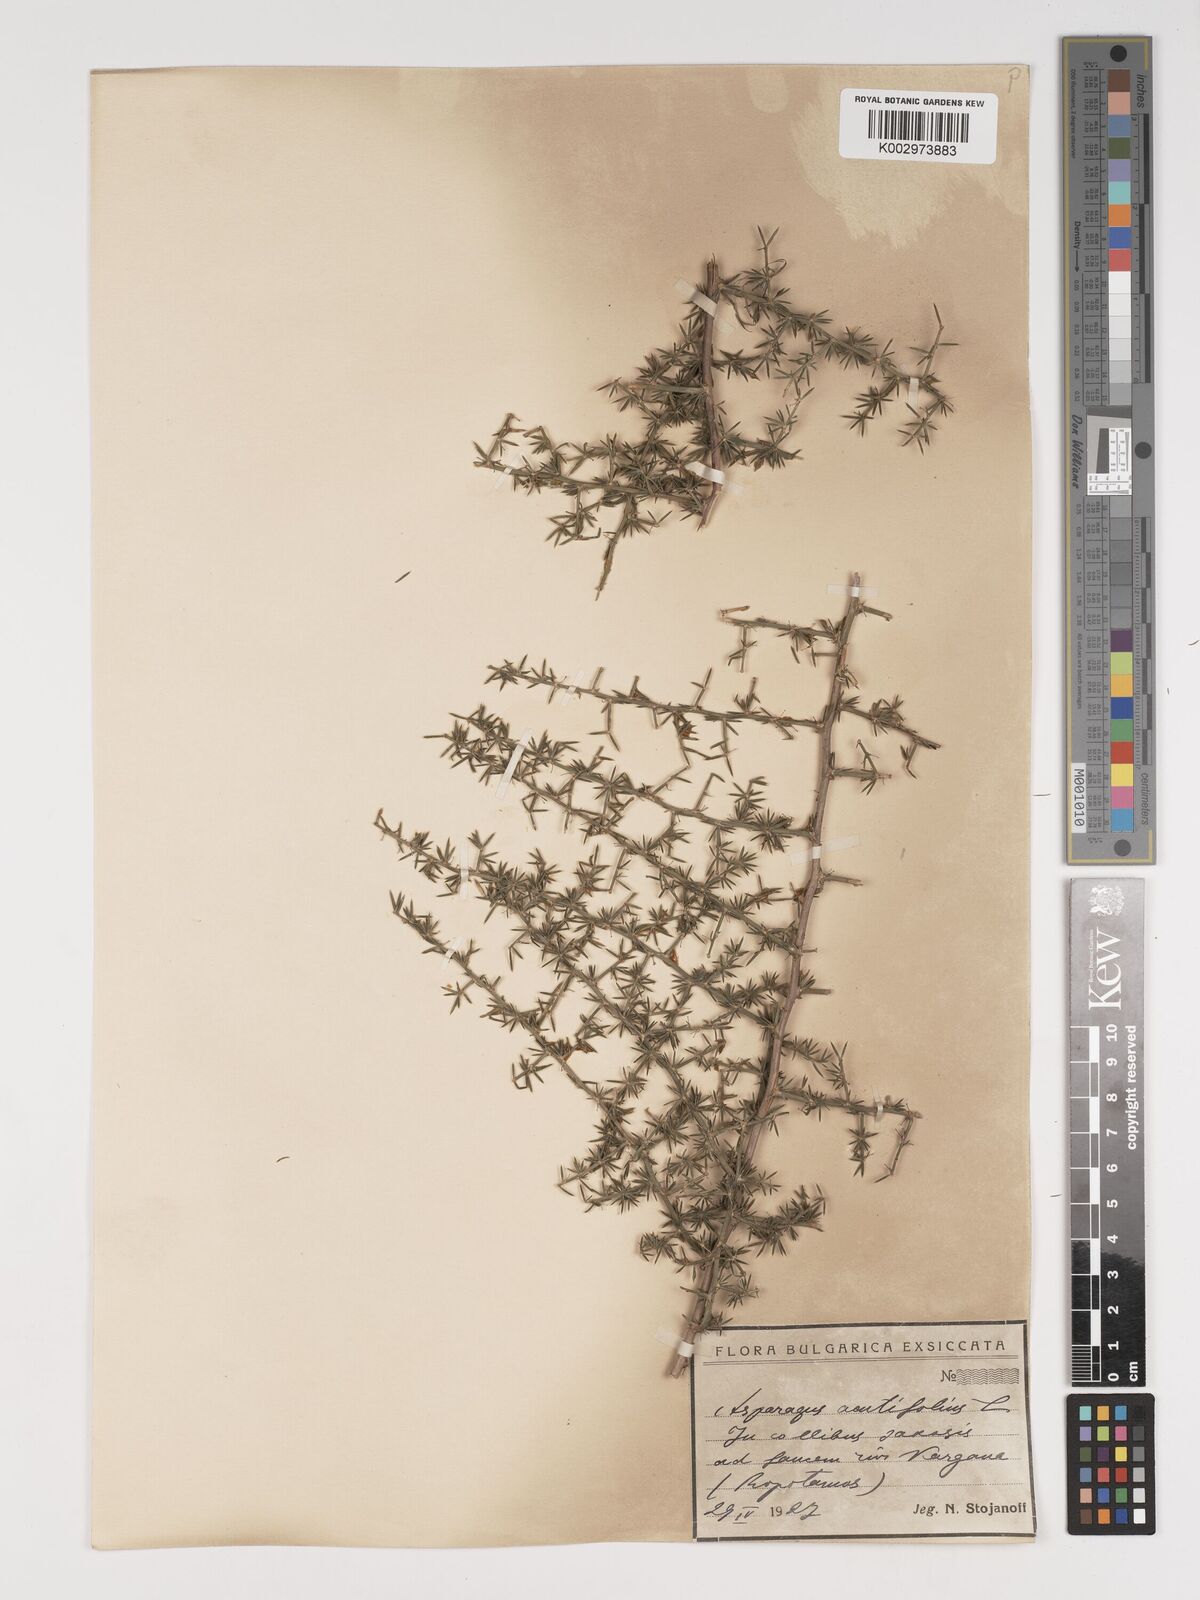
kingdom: Plantae
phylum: Tracheophyta
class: Liliopsida
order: Asparagales
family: Asparagaceae
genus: Asparagus
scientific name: Asparagus acutifolius
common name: Wild asparagus
